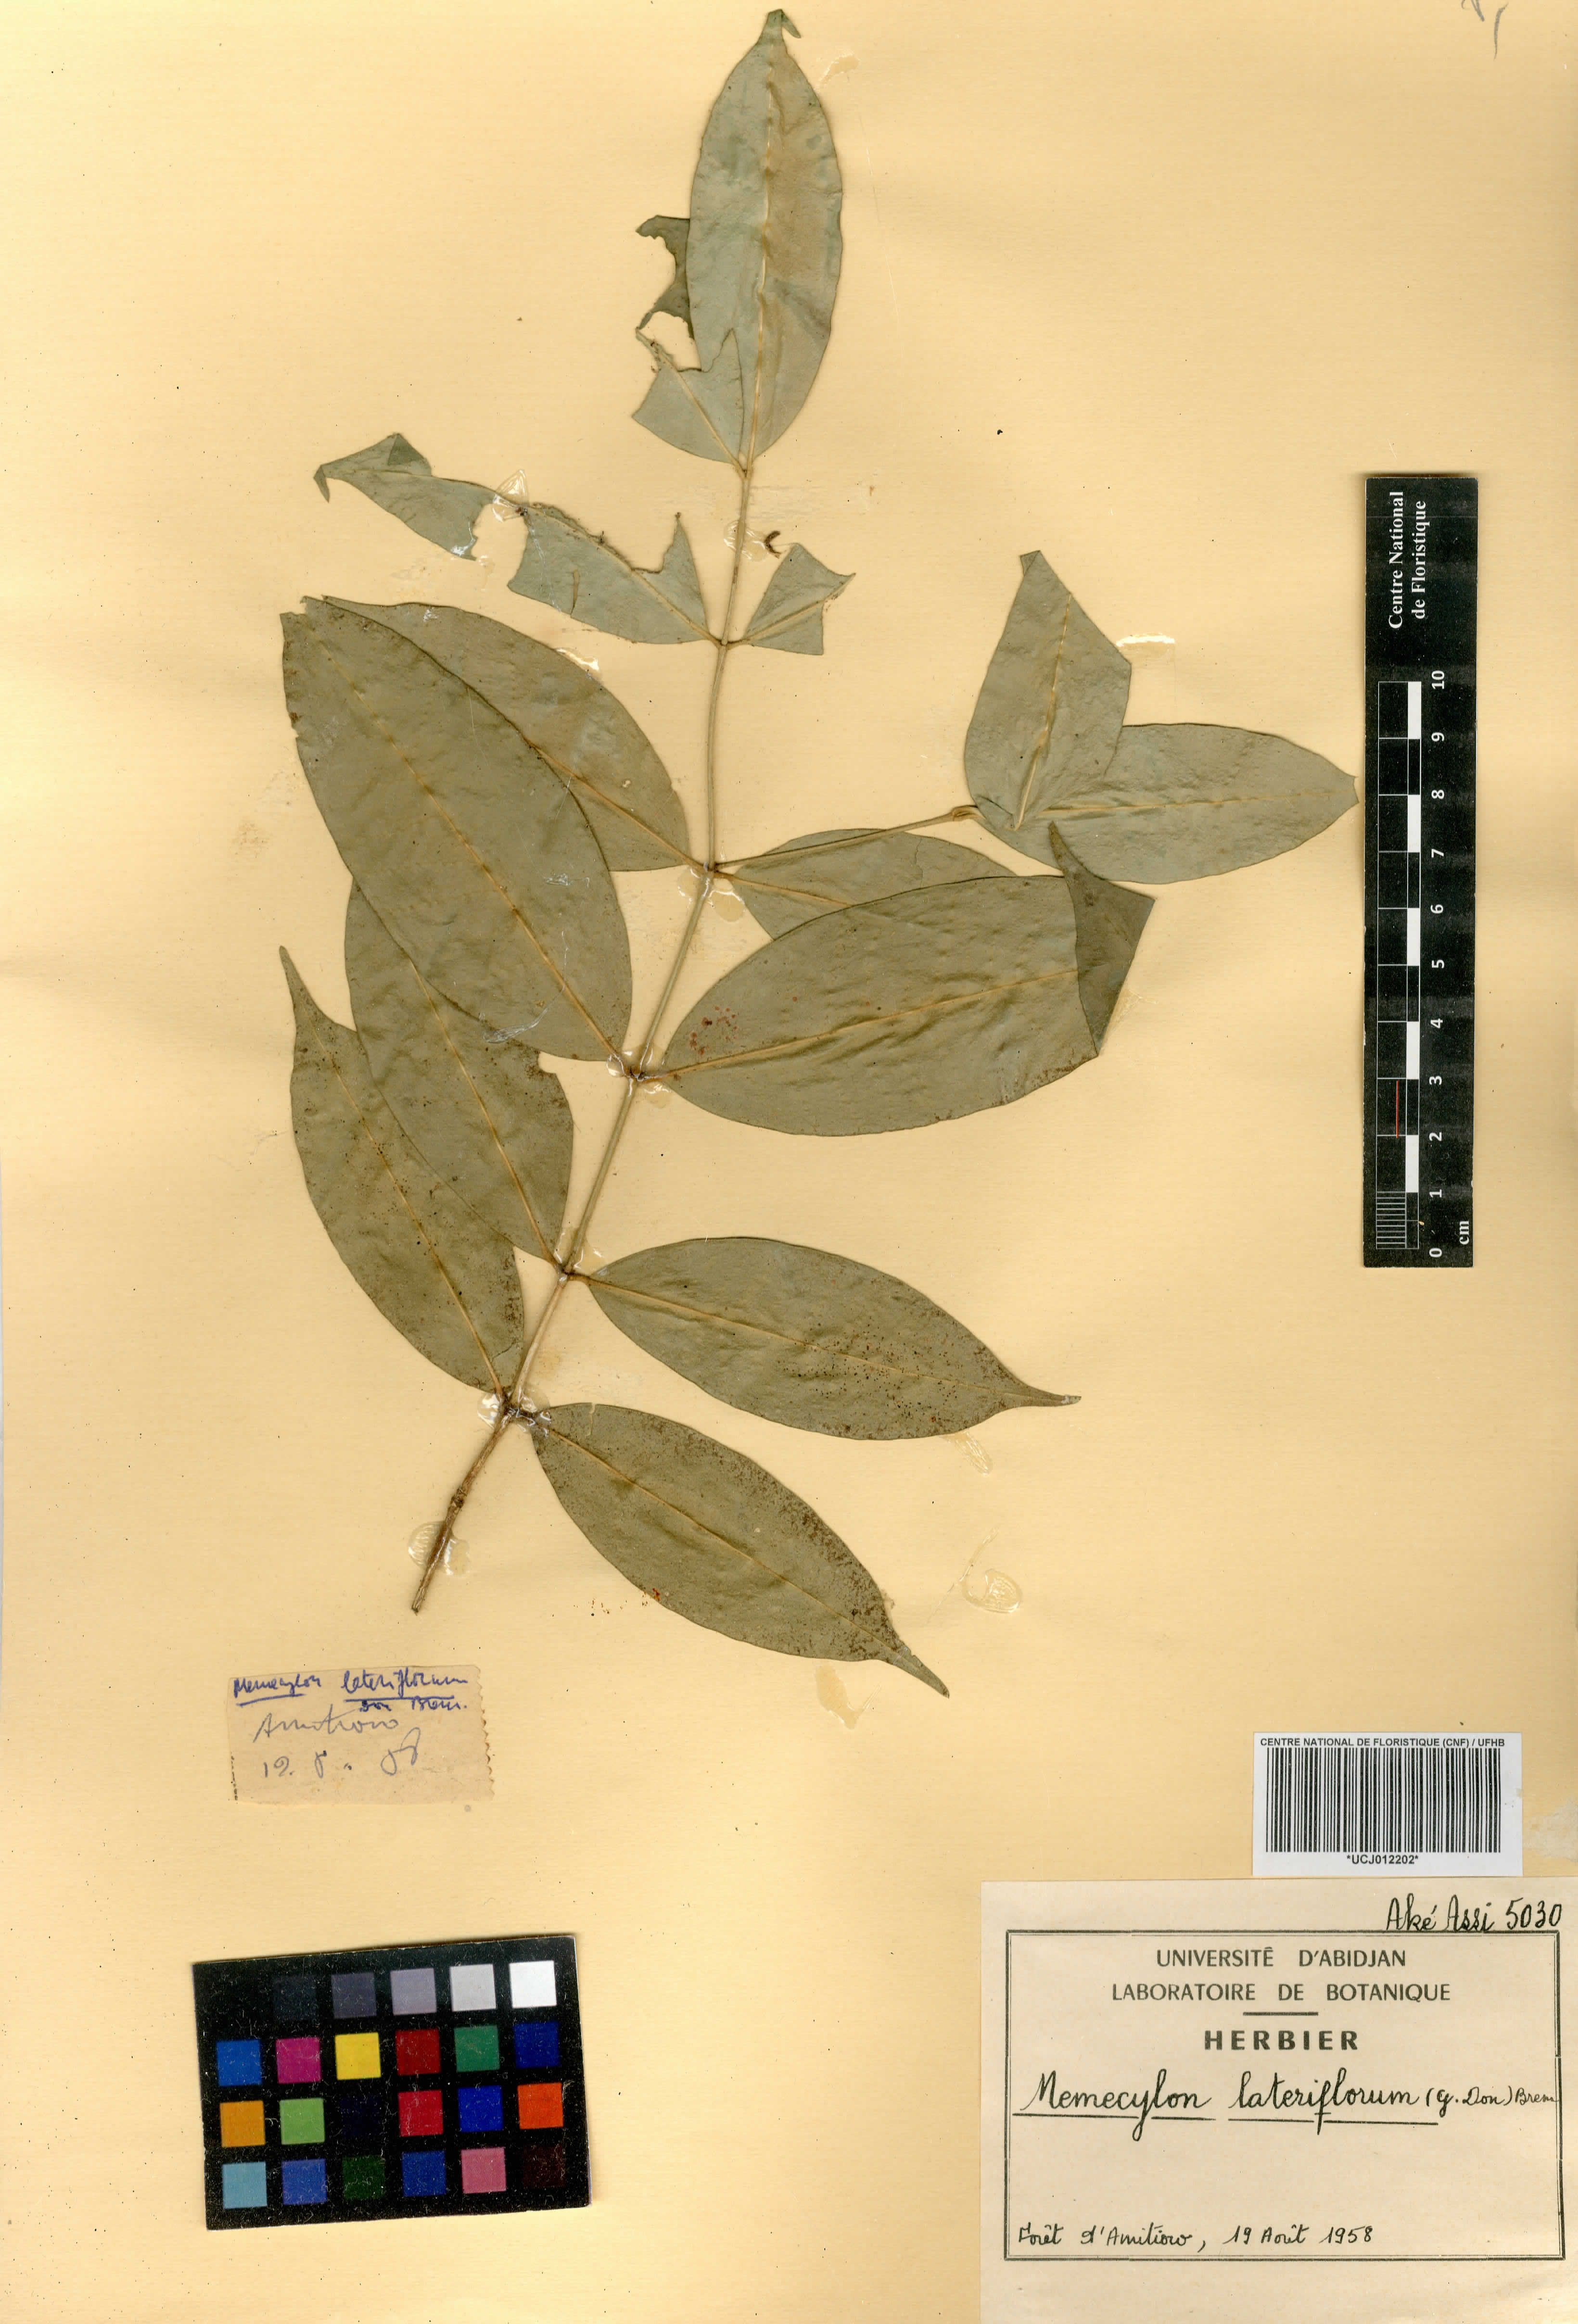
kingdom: Plantae
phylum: Tracheophyta
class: Magnoliopsida
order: Myrtales
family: Melastomataceae
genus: Memecylon
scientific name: Memecylon lateriflorum
